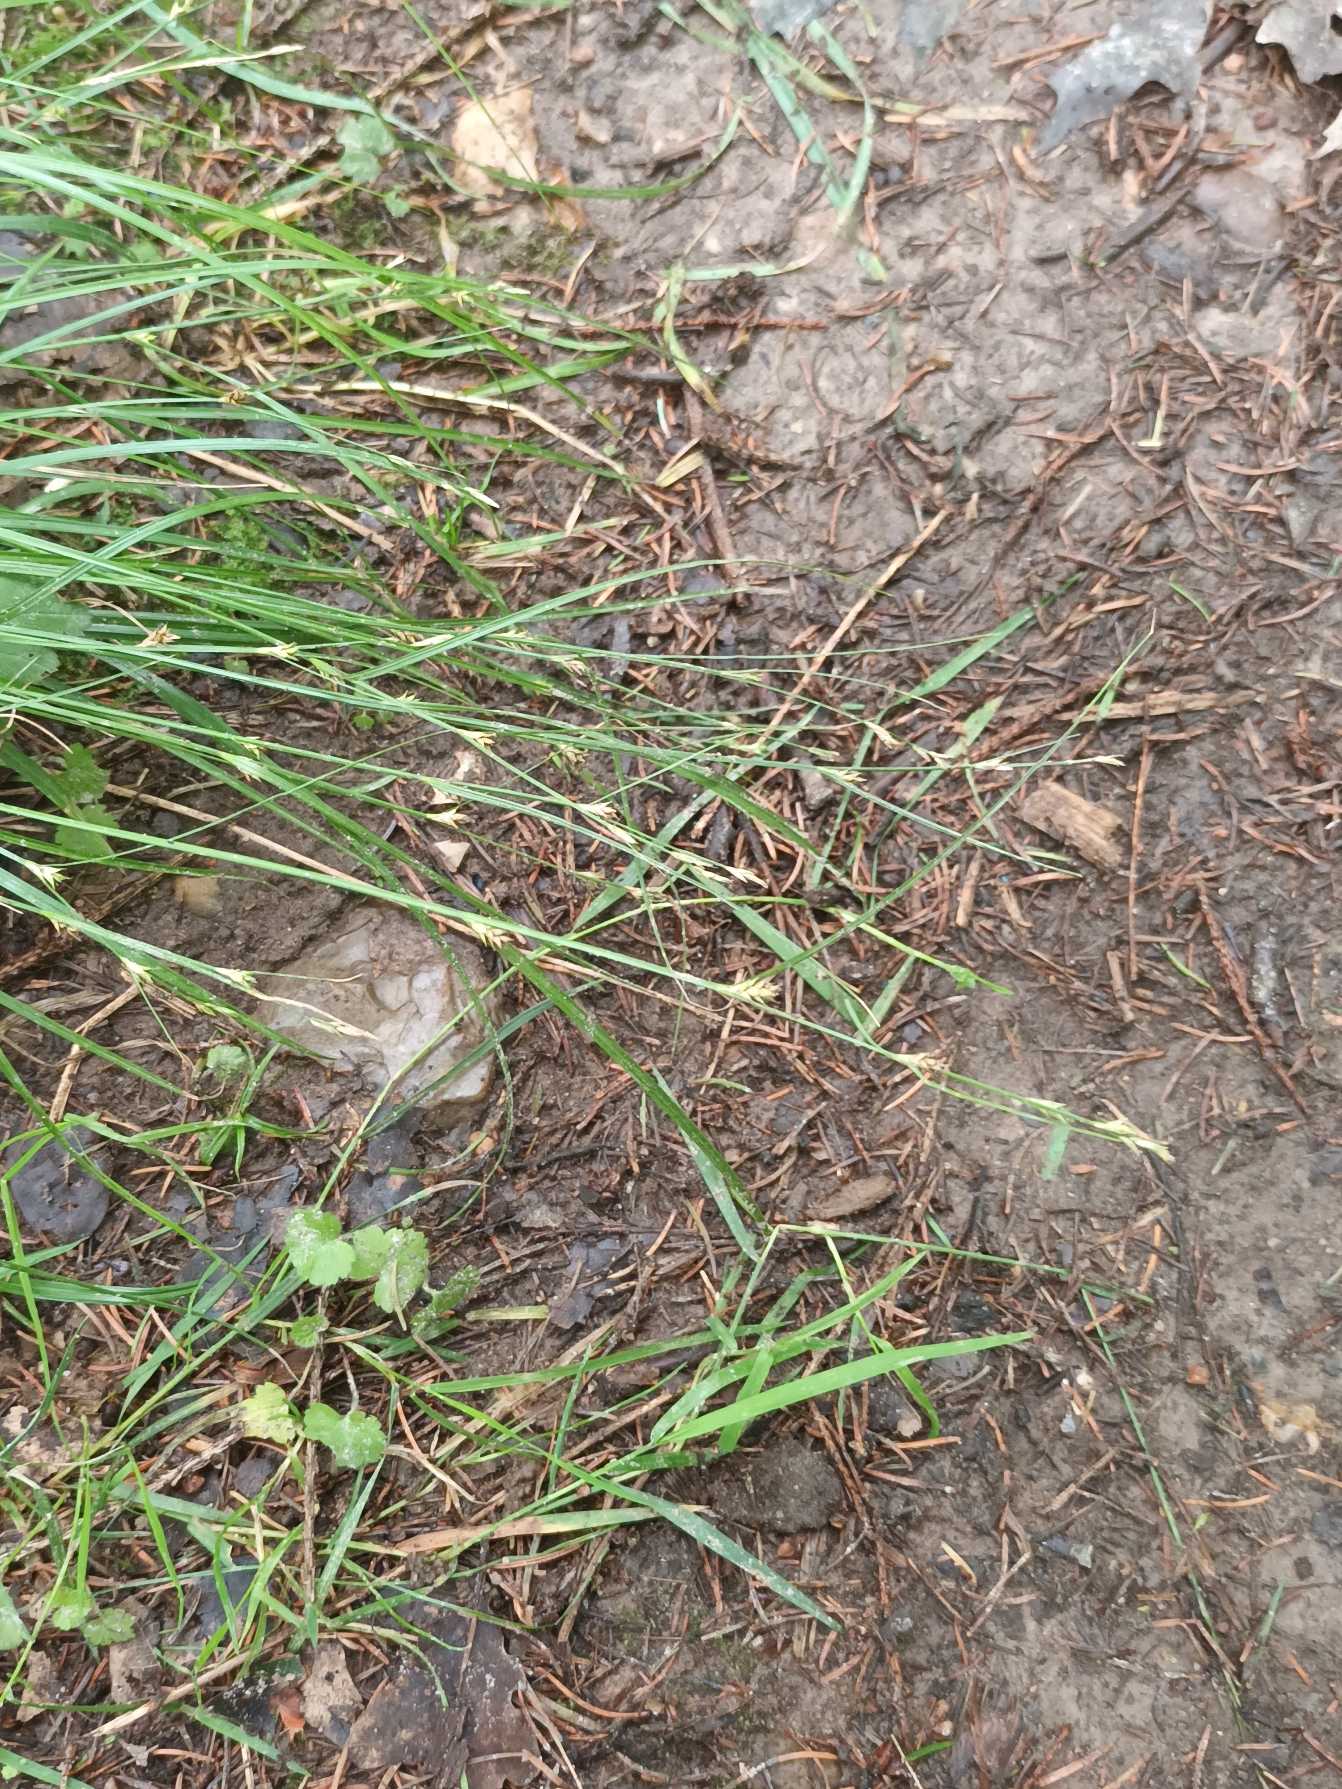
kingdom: Plantae
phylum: Tracheophyta
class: Liliopsida
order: Poales
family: Cyperaceae
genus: Carex
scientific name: Carex remota
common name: Akselblomstret star
